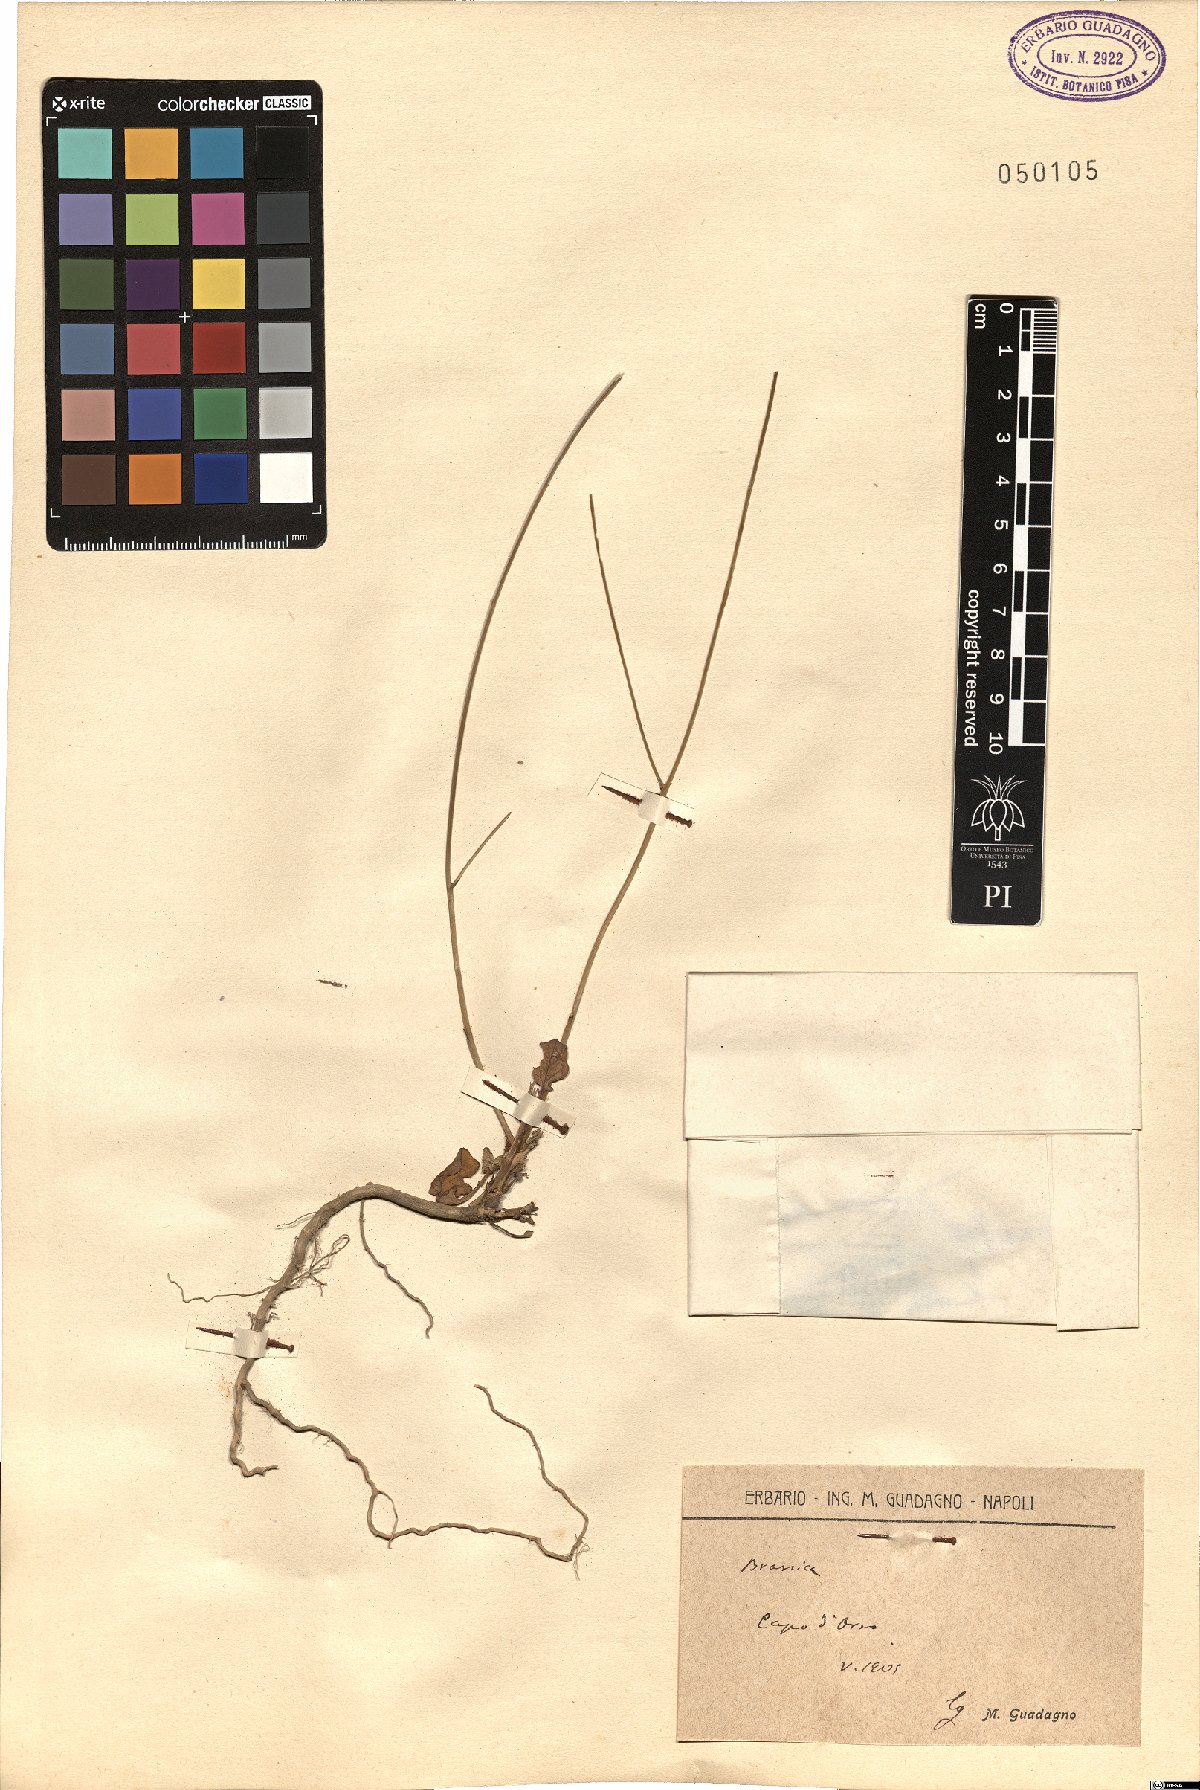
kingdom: Plantae
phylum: Tracheophyta
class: Magnoliopsida
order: Brassicales
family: Brassicaceae
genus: Brassica
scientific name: Brassica
